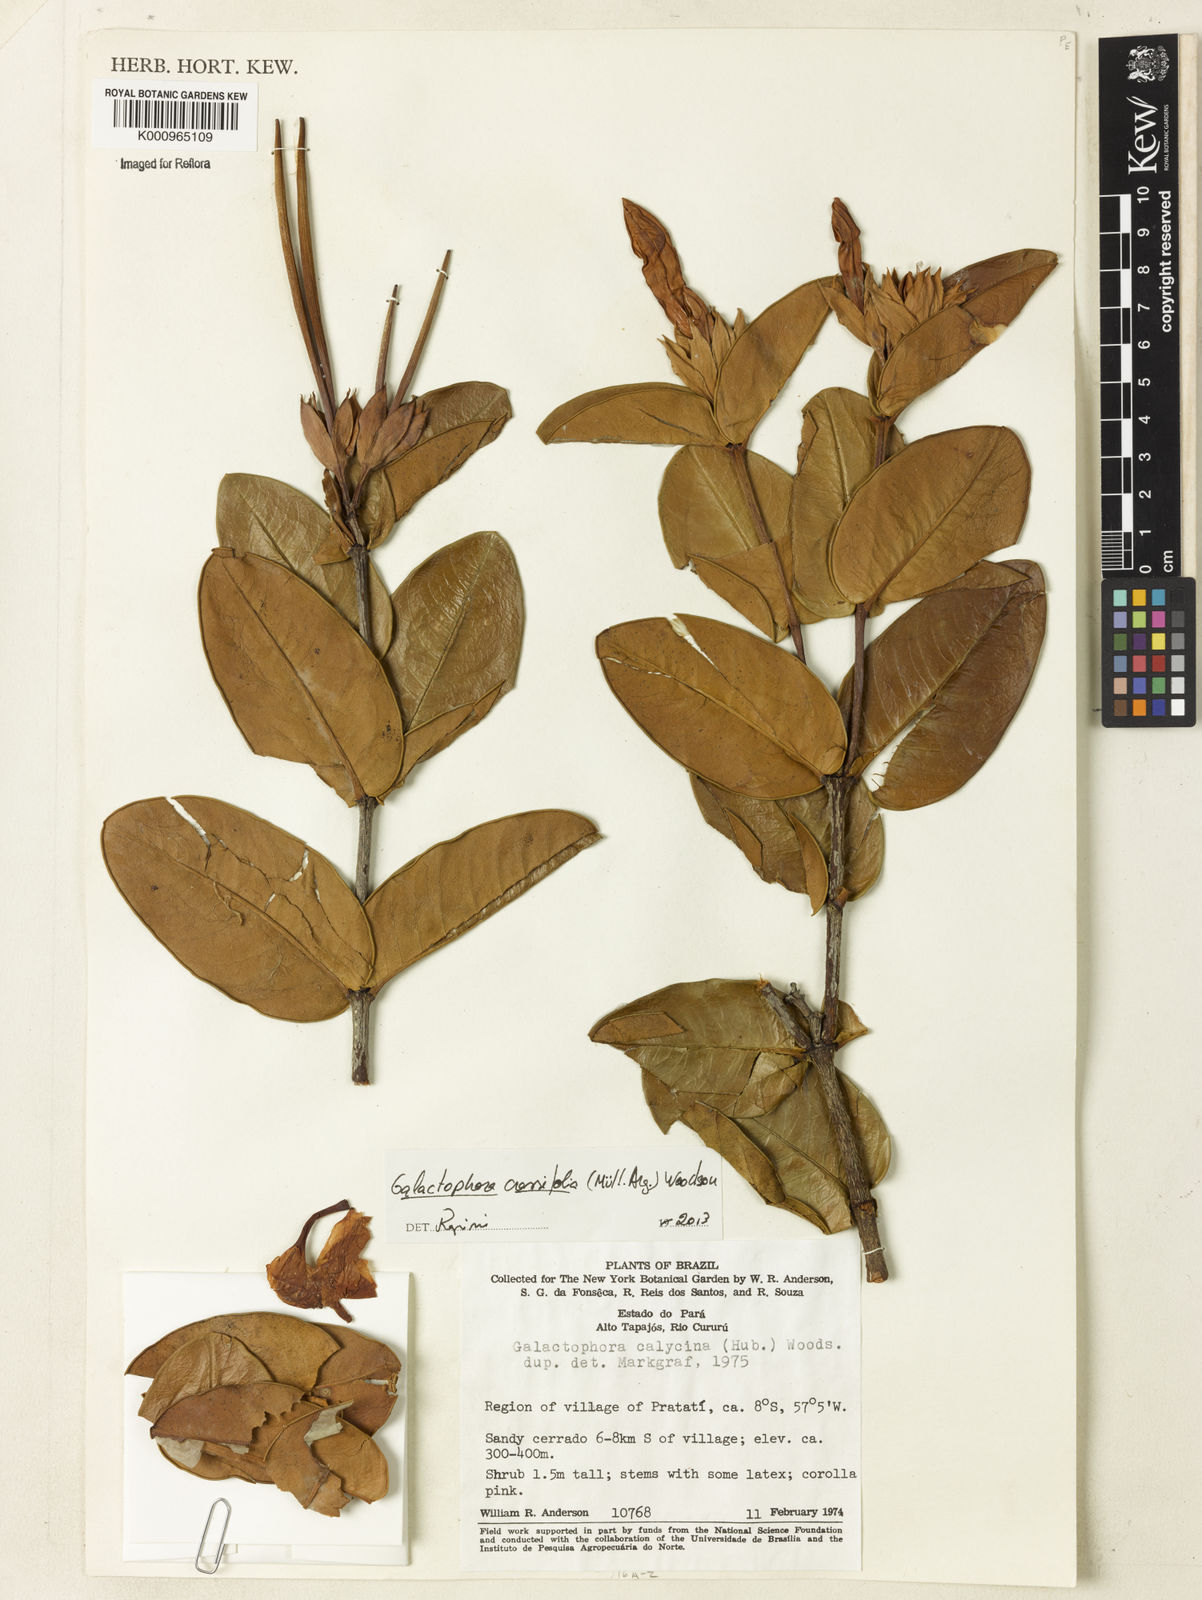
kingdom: Plantae
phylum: Tracheophyta
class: Magnoliopsida
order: Gentianales
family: Apocynaceae
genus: Galactophora
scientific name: Galactophora
